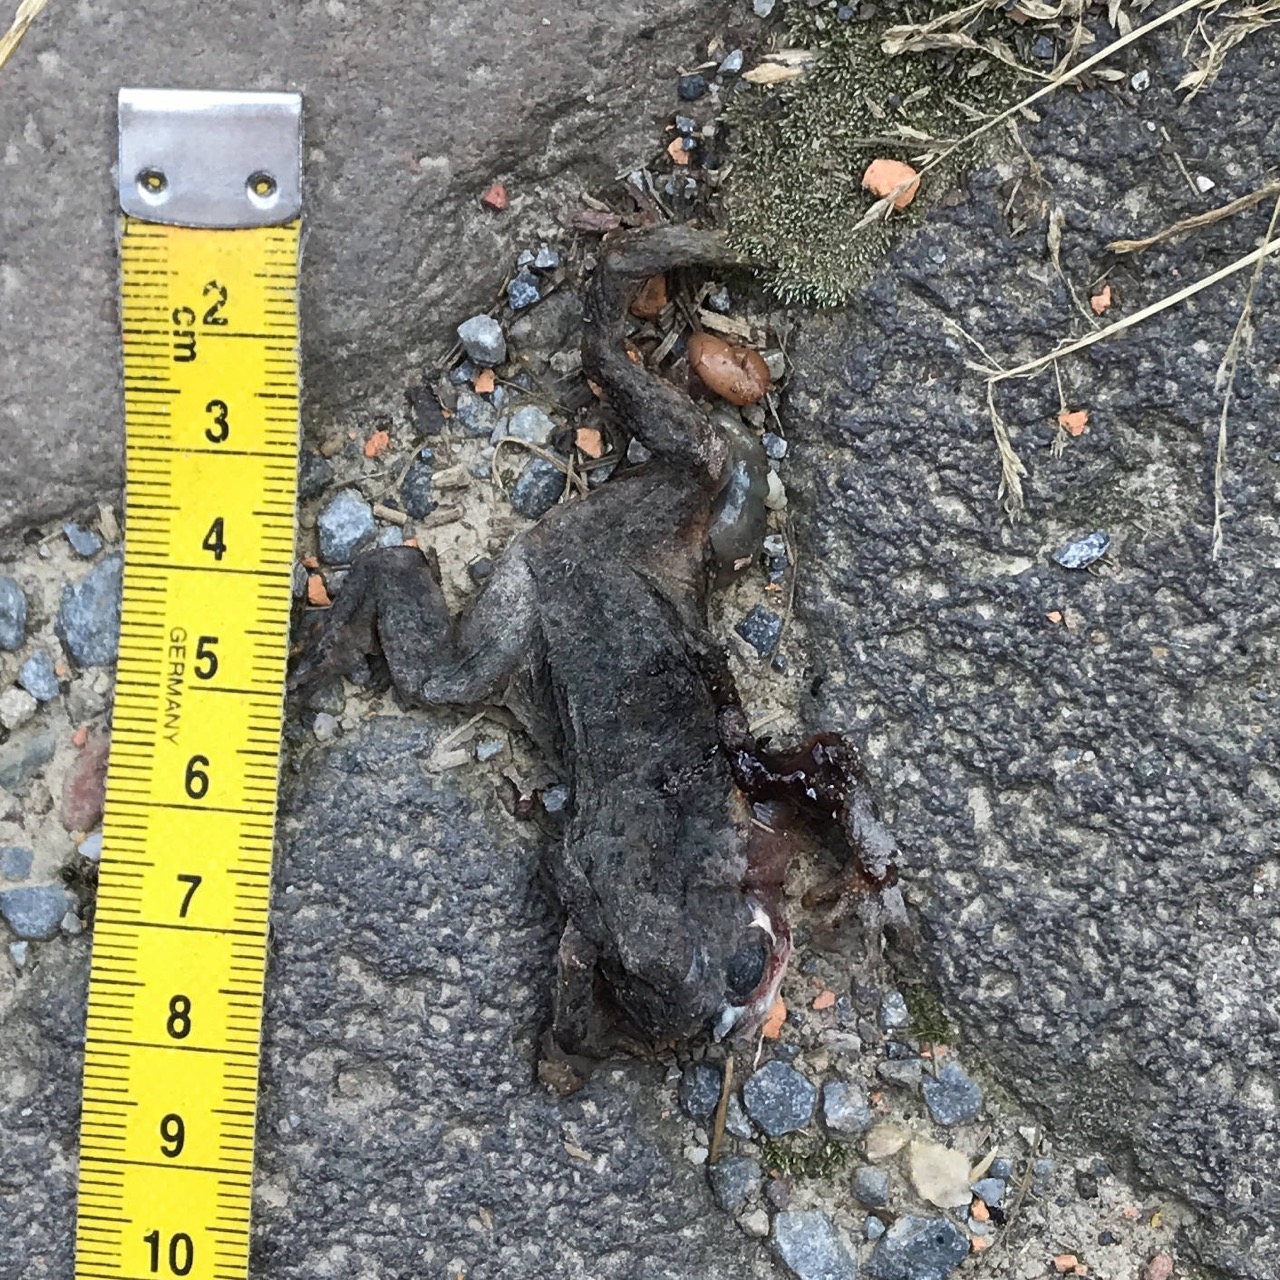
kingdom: Animalia
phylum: Chordata
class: Amphibia
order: Anura
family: Bufonidae
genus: Bufo
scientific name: Bufo bufo
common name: Common toad
